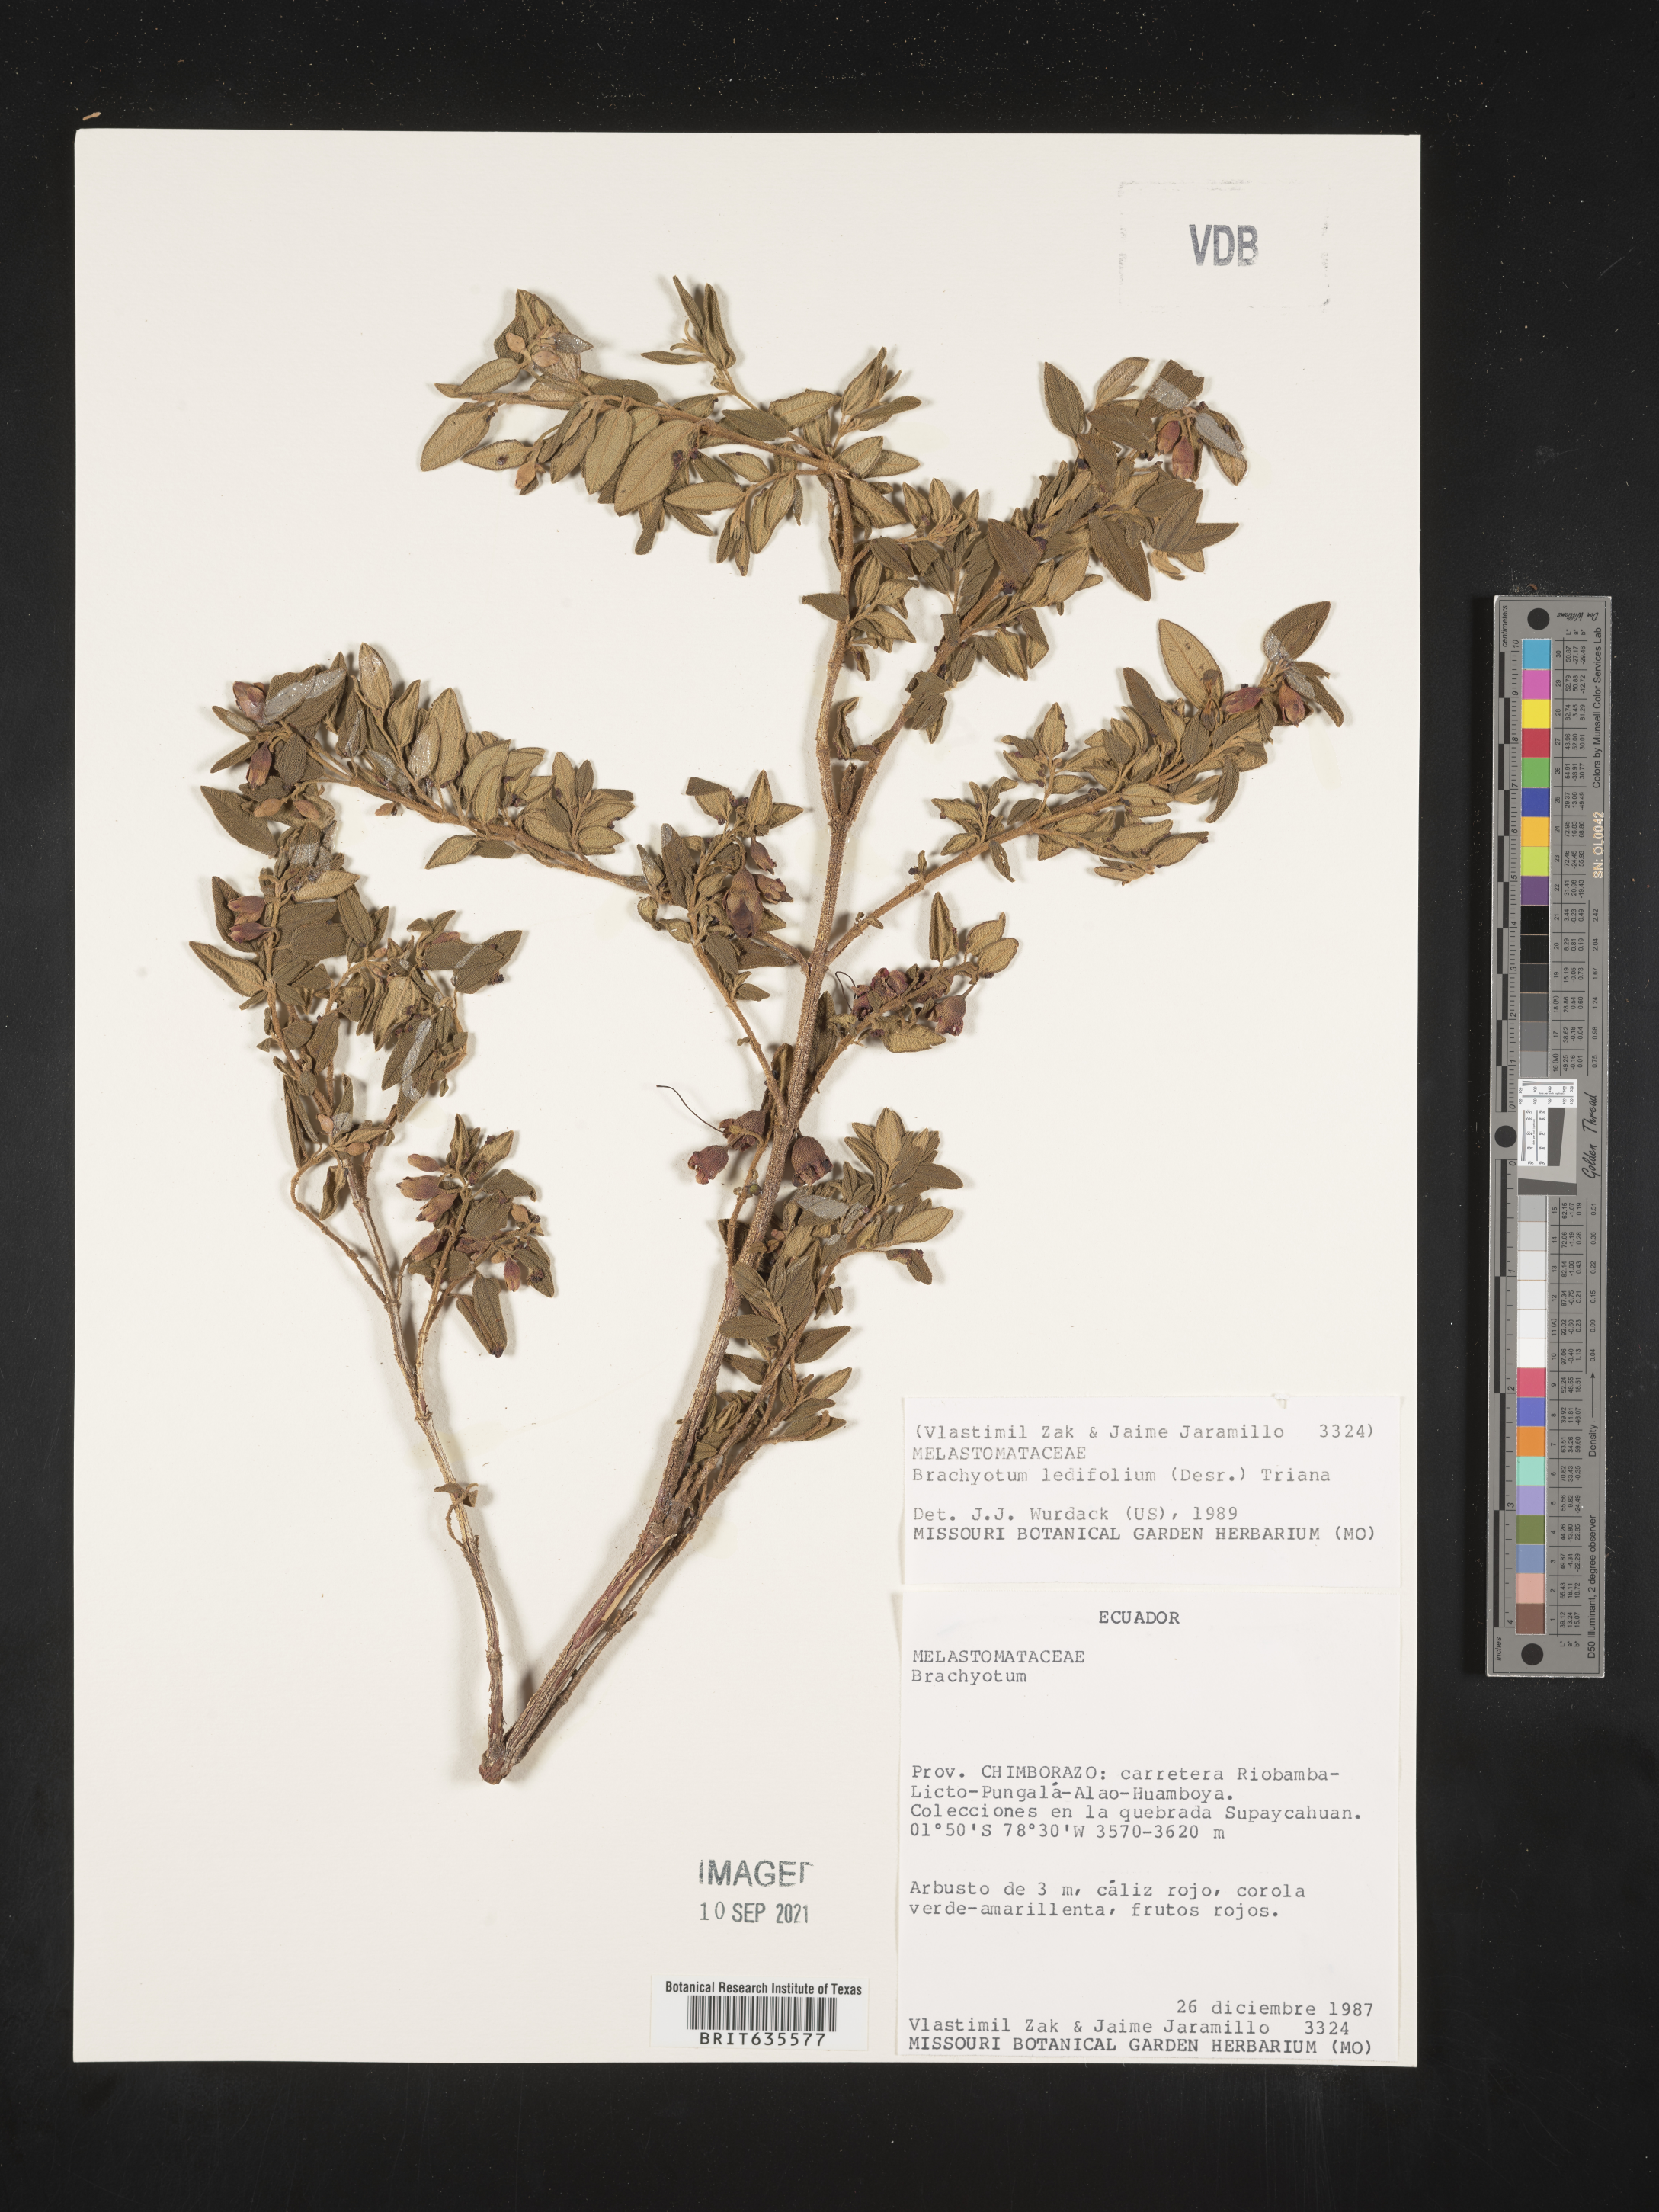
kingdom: Plantae
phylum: Tracheophyta
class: Magnoliopsida
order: Myrtales
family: Melastomataceae
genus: Brachyotum
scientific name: Brachyotum
